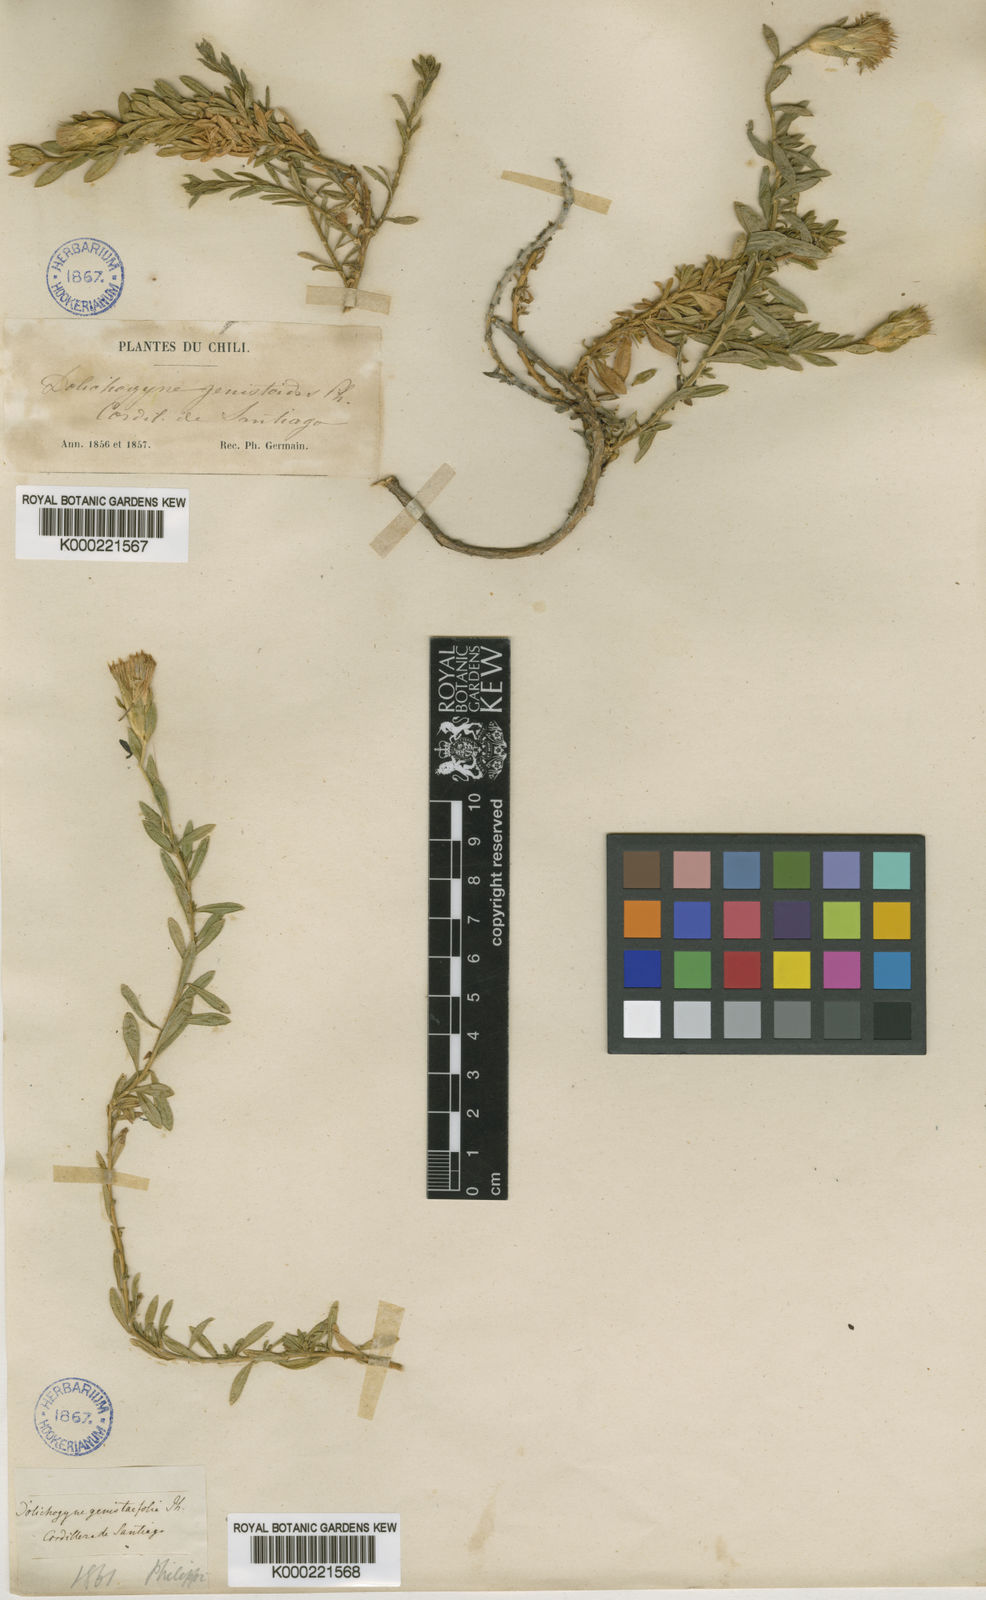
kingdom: Plantae
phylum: Tracheophyta
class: Magnoliopsida
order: Asterales
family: Asteraceae
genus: Nardophyllum
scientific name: Nardophyllum genistoides
